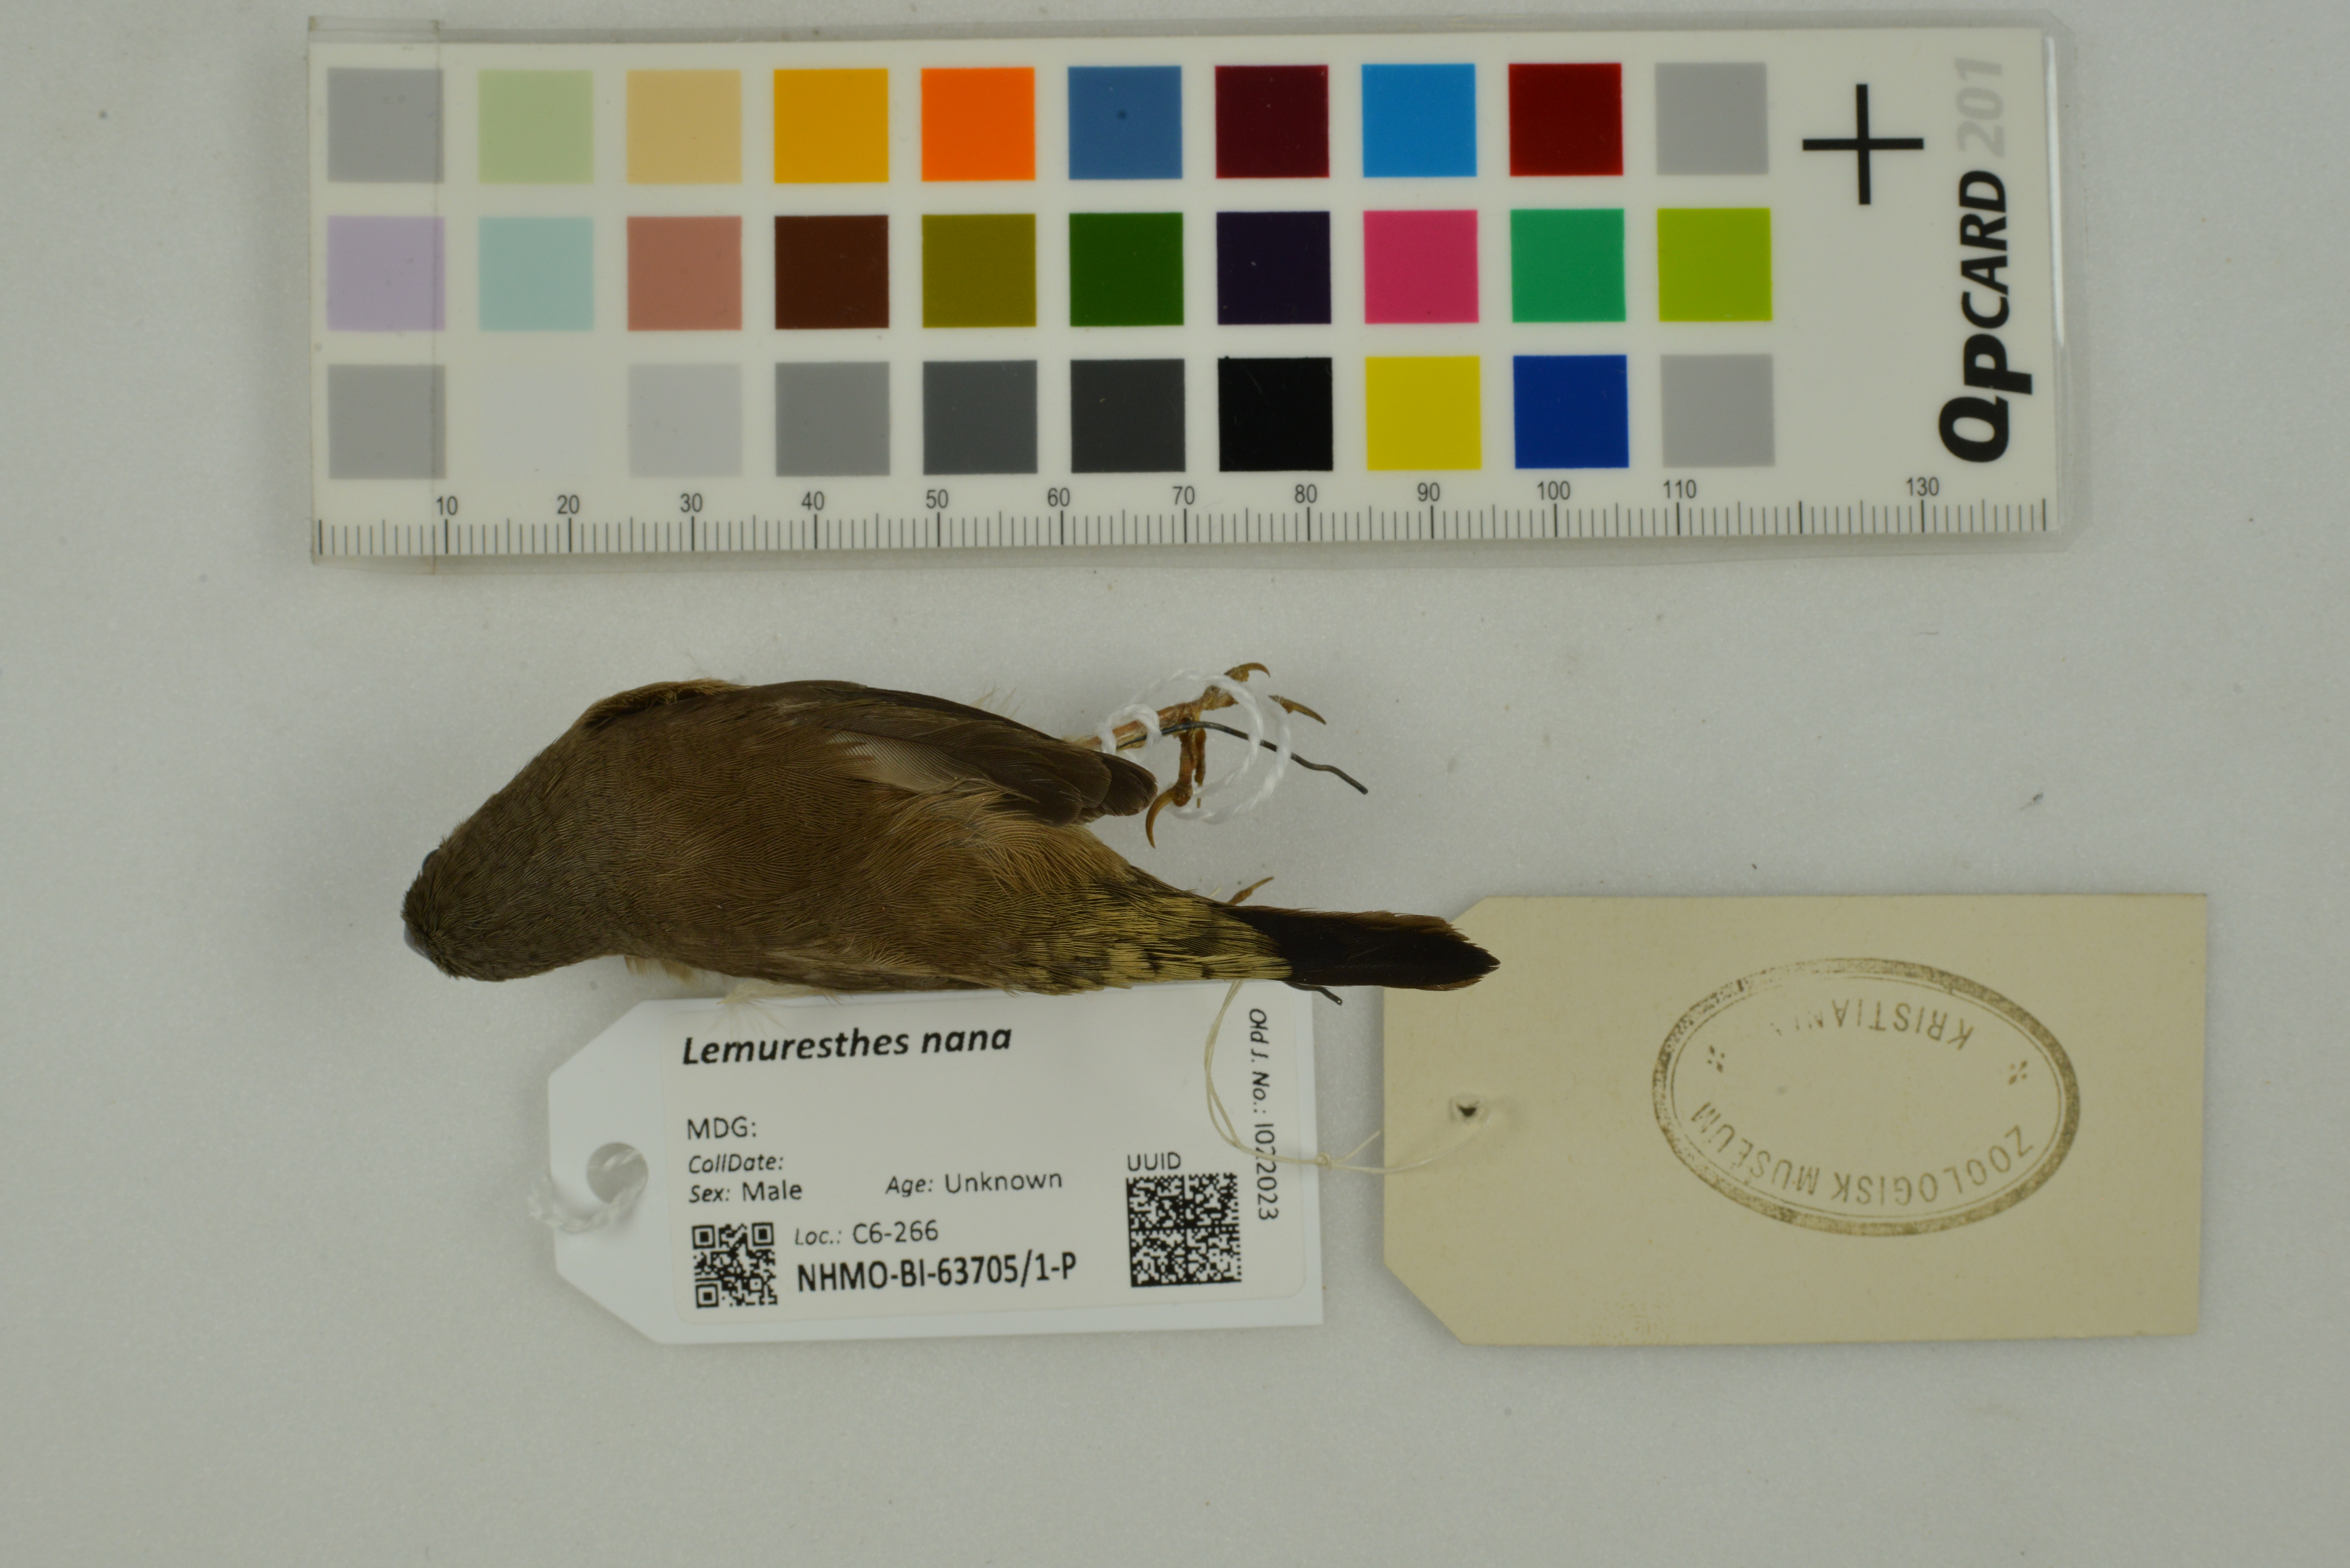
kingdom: Animalia
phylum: Chordata
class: Aves
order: Passeriformes
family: Estrildidae
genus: Lemuresthes
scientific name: Lemuresthes nana
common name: Madagascar mannikin
